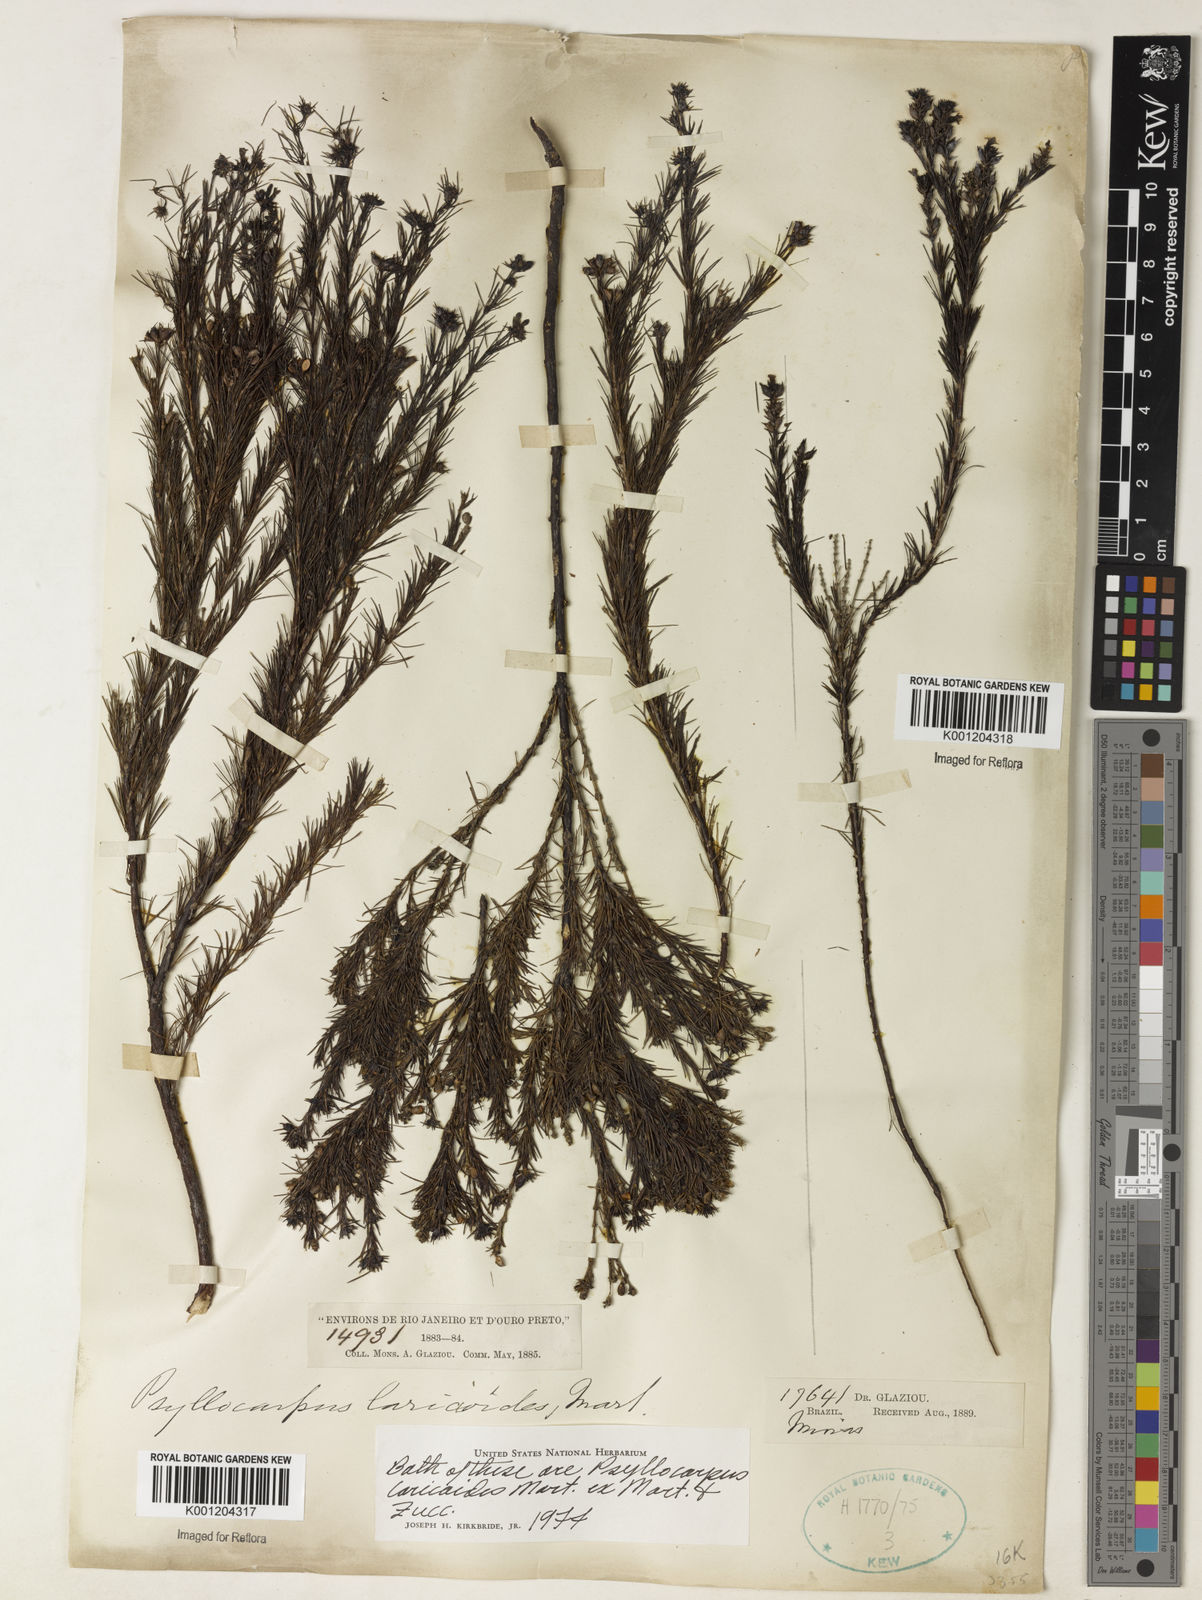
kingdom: Plantae
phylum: Tracheophyta
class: Magnoliopsida
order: Gentianales
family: Rubiaceae
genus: Psyllocarpus
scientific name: Psyllocarpus laricoides
